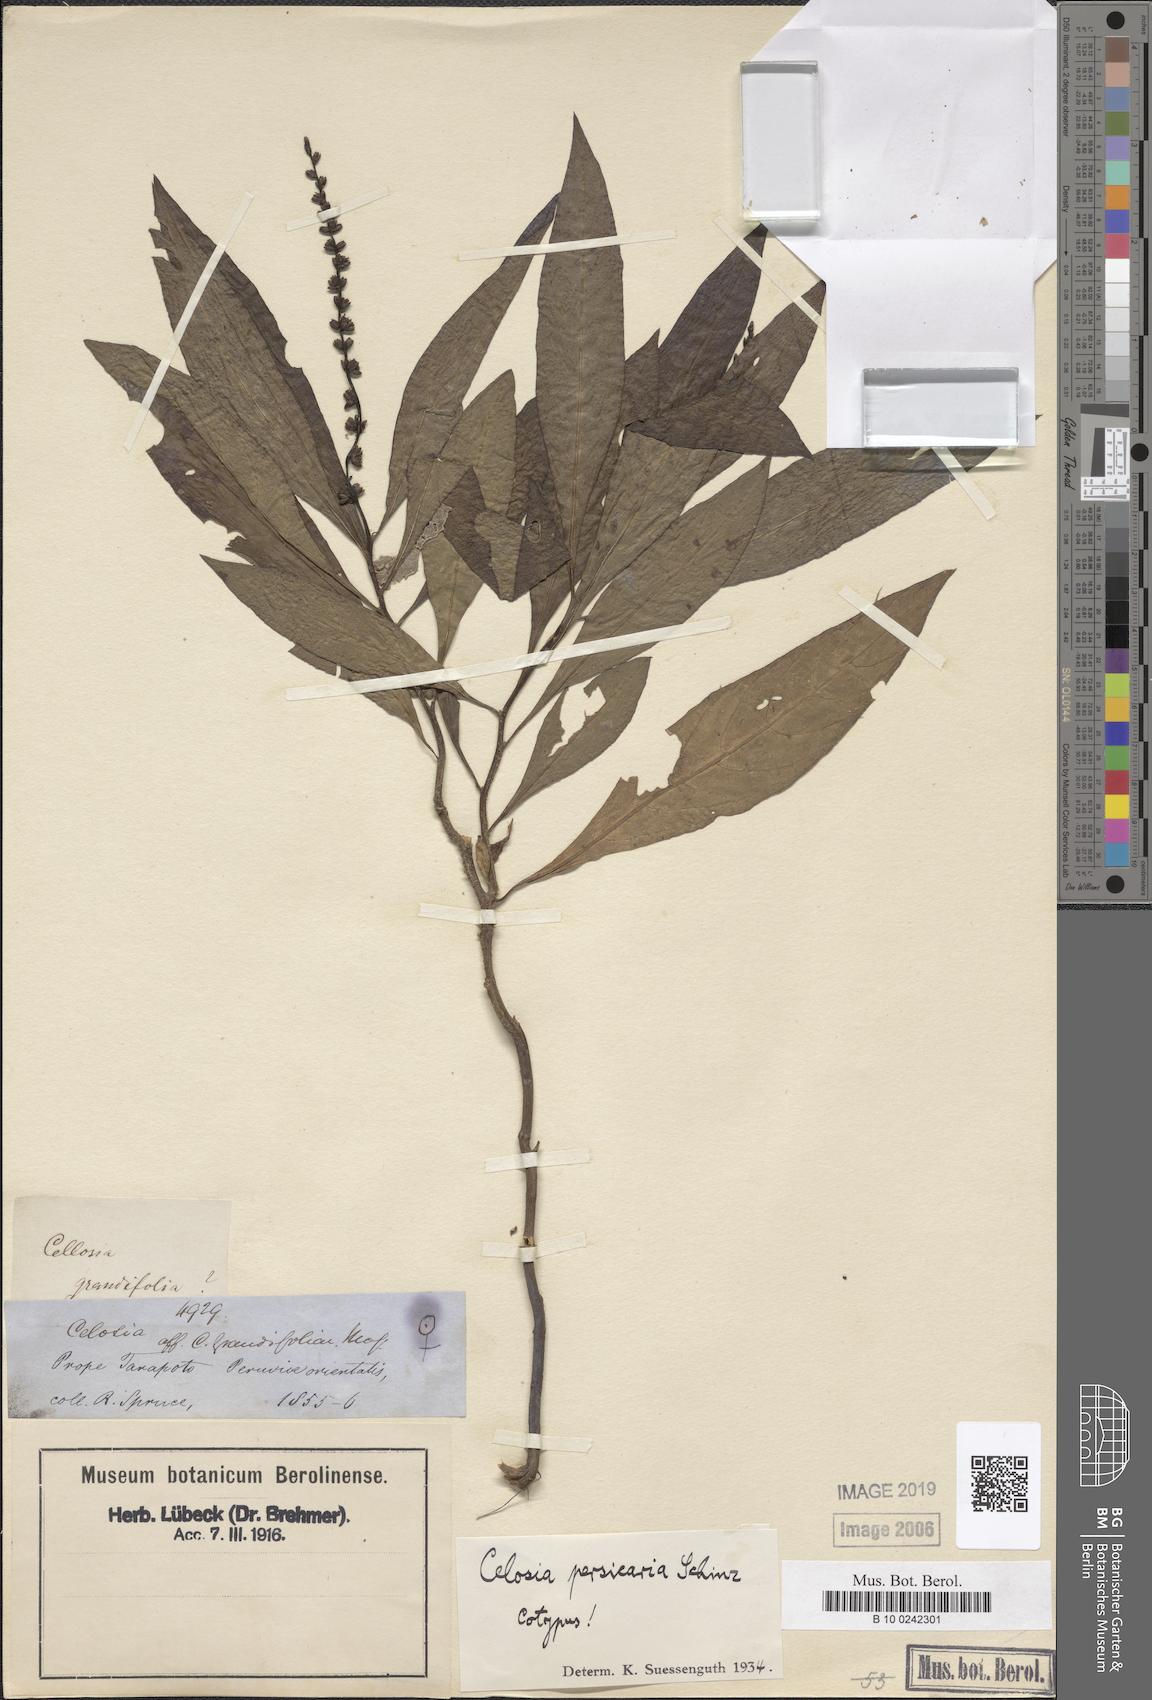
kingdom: Plantae
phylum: Tracheophyta
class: Magnoliopsida
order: Caryophyllales
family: Amaranthaceae
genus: Celosia
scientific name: Celosia persicaria
